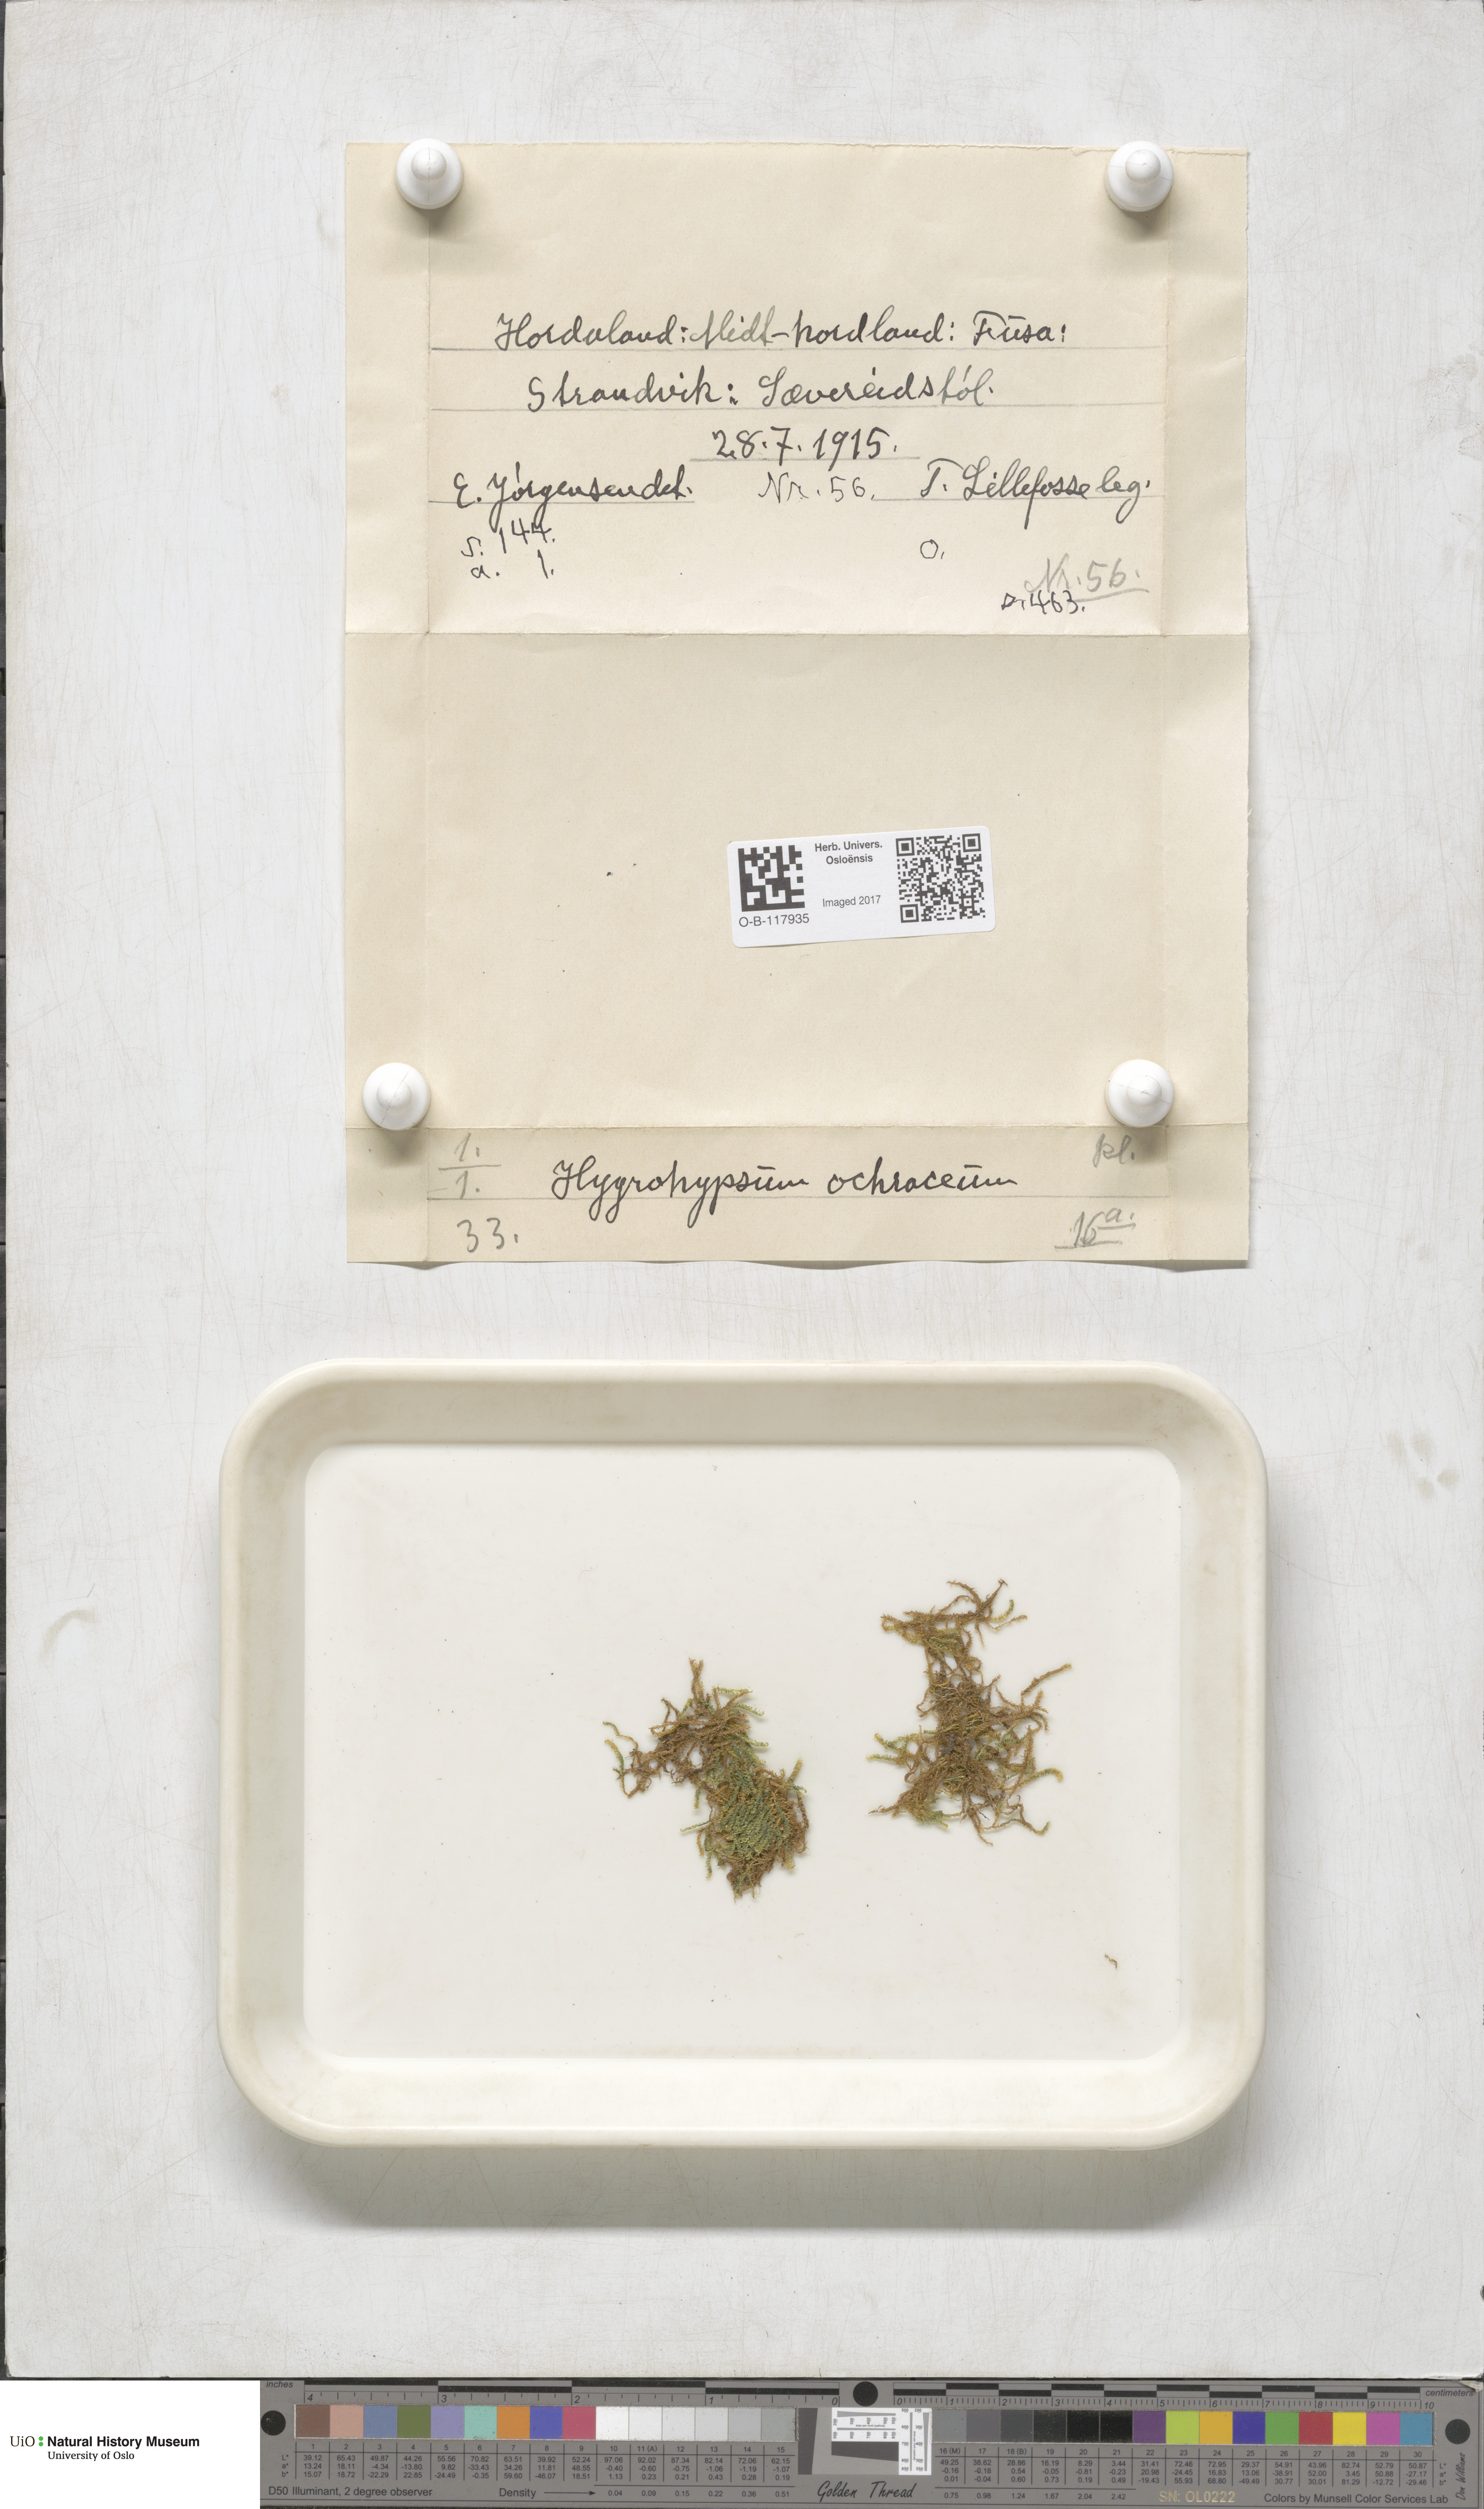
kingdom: Plantae
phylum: Bryophyta
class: Bryopsida
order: Hypnales
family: Scorpidiaceae
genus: Hygrohypnella
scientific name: Hygrohypnella ochracea
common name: Hygrohypnum moss
